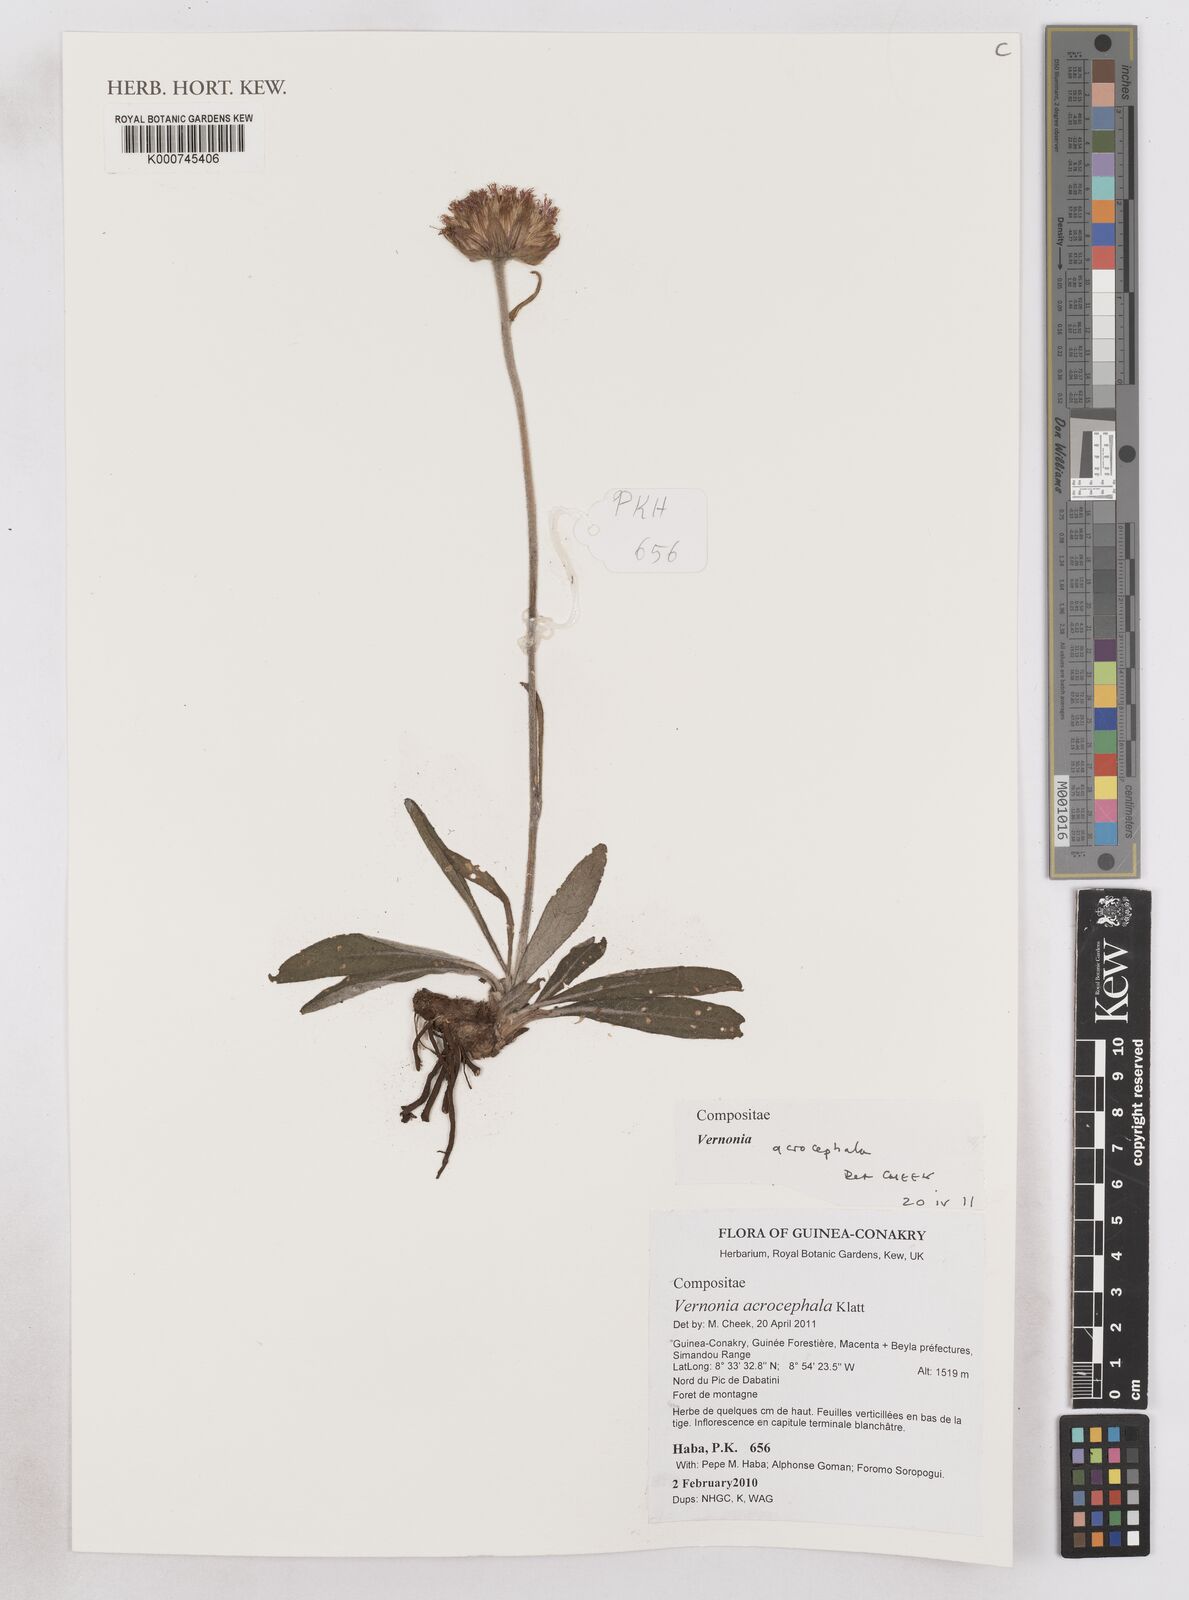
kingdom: Plantae
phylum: Tracheophyta
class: Magnoliopsida
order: Asterales
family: Asteraceae
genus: Vernonella
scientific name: Vernonella acrocephala
